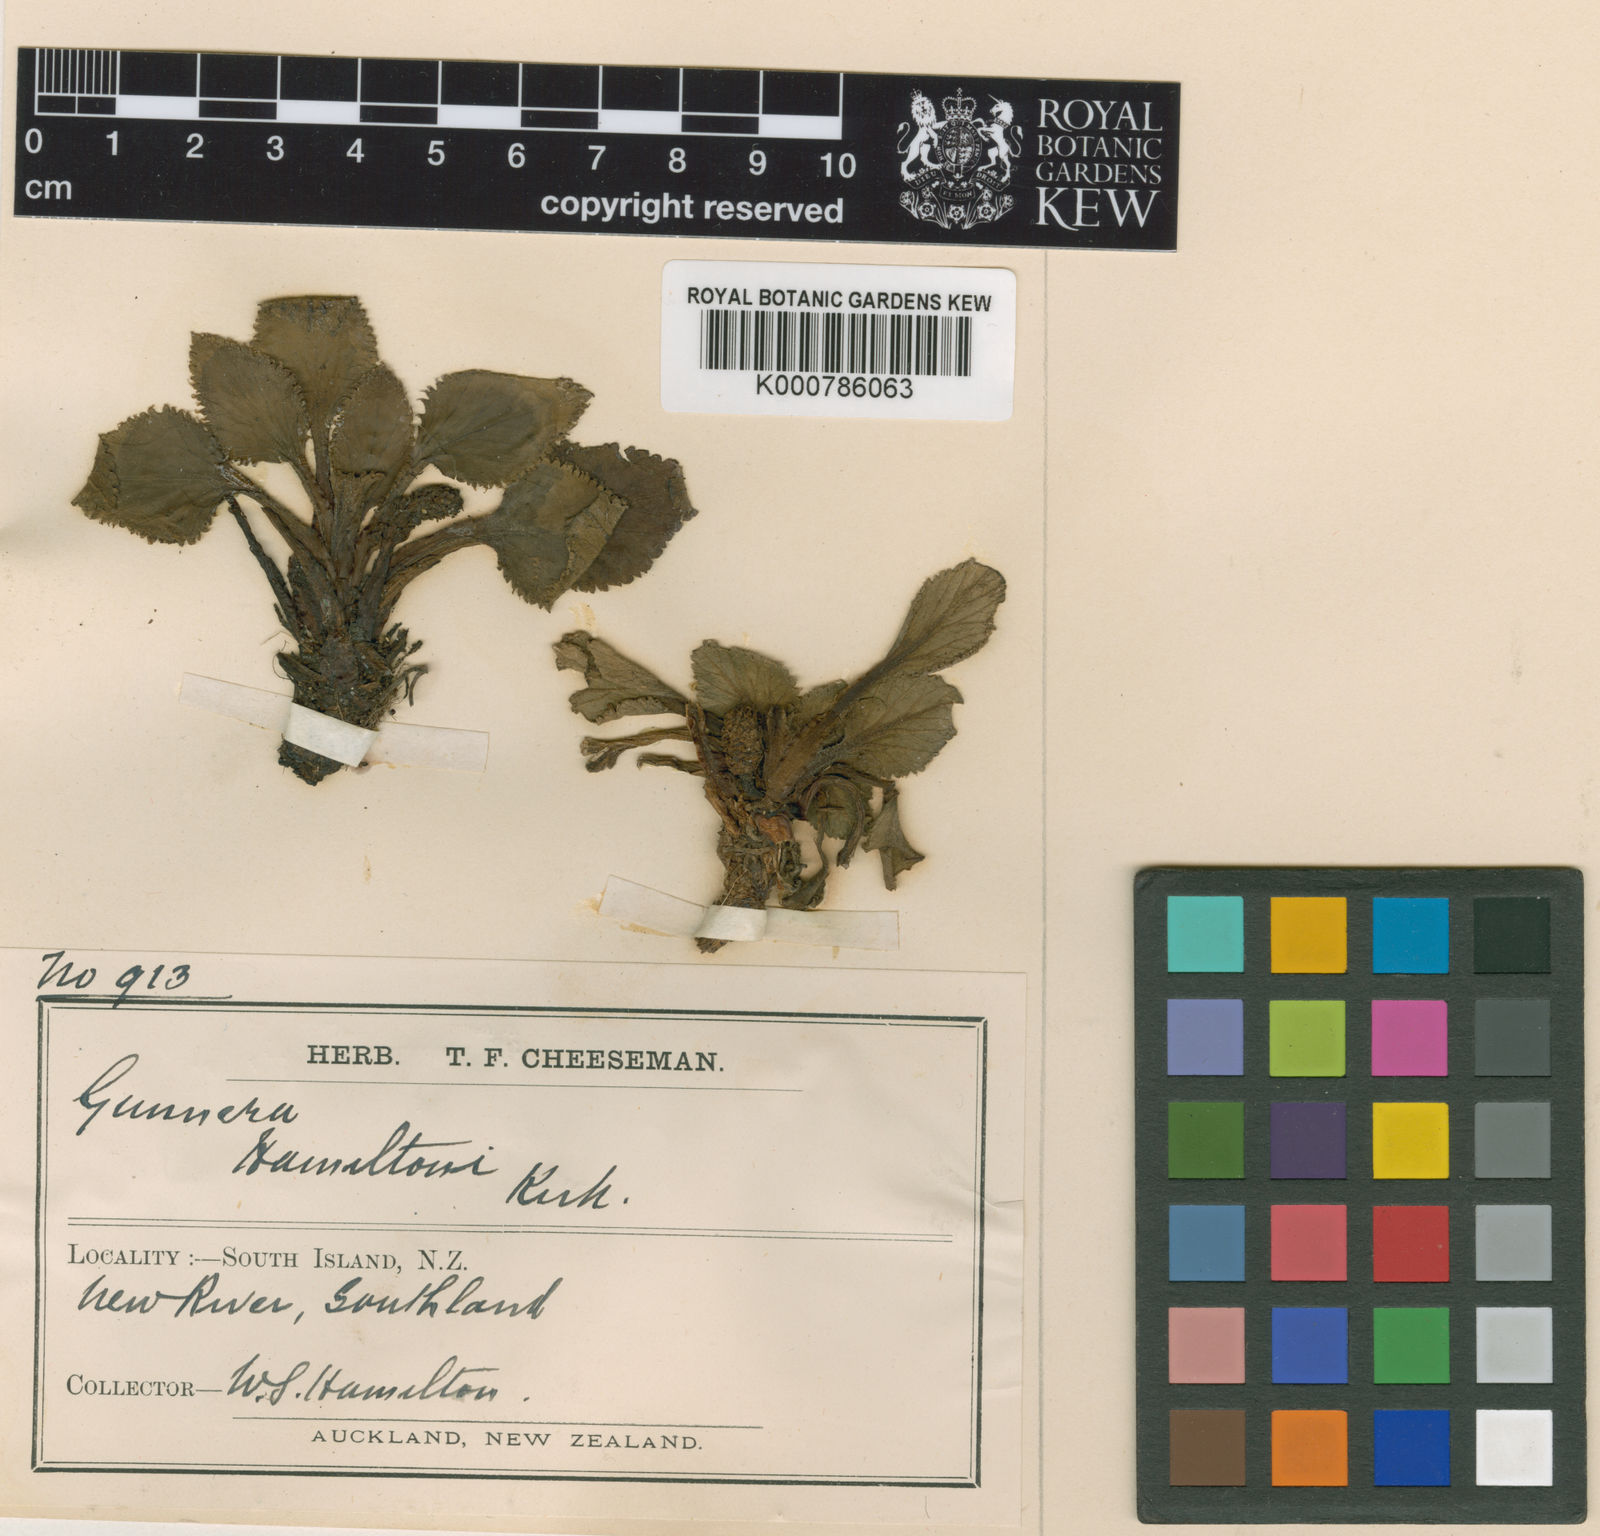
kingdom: Plantae
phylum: Tracheophyta
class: Magnoliopsida
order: Gunnerales
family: Gunneraceae
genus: Gunnera
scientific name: Gunnera hamiltonii
